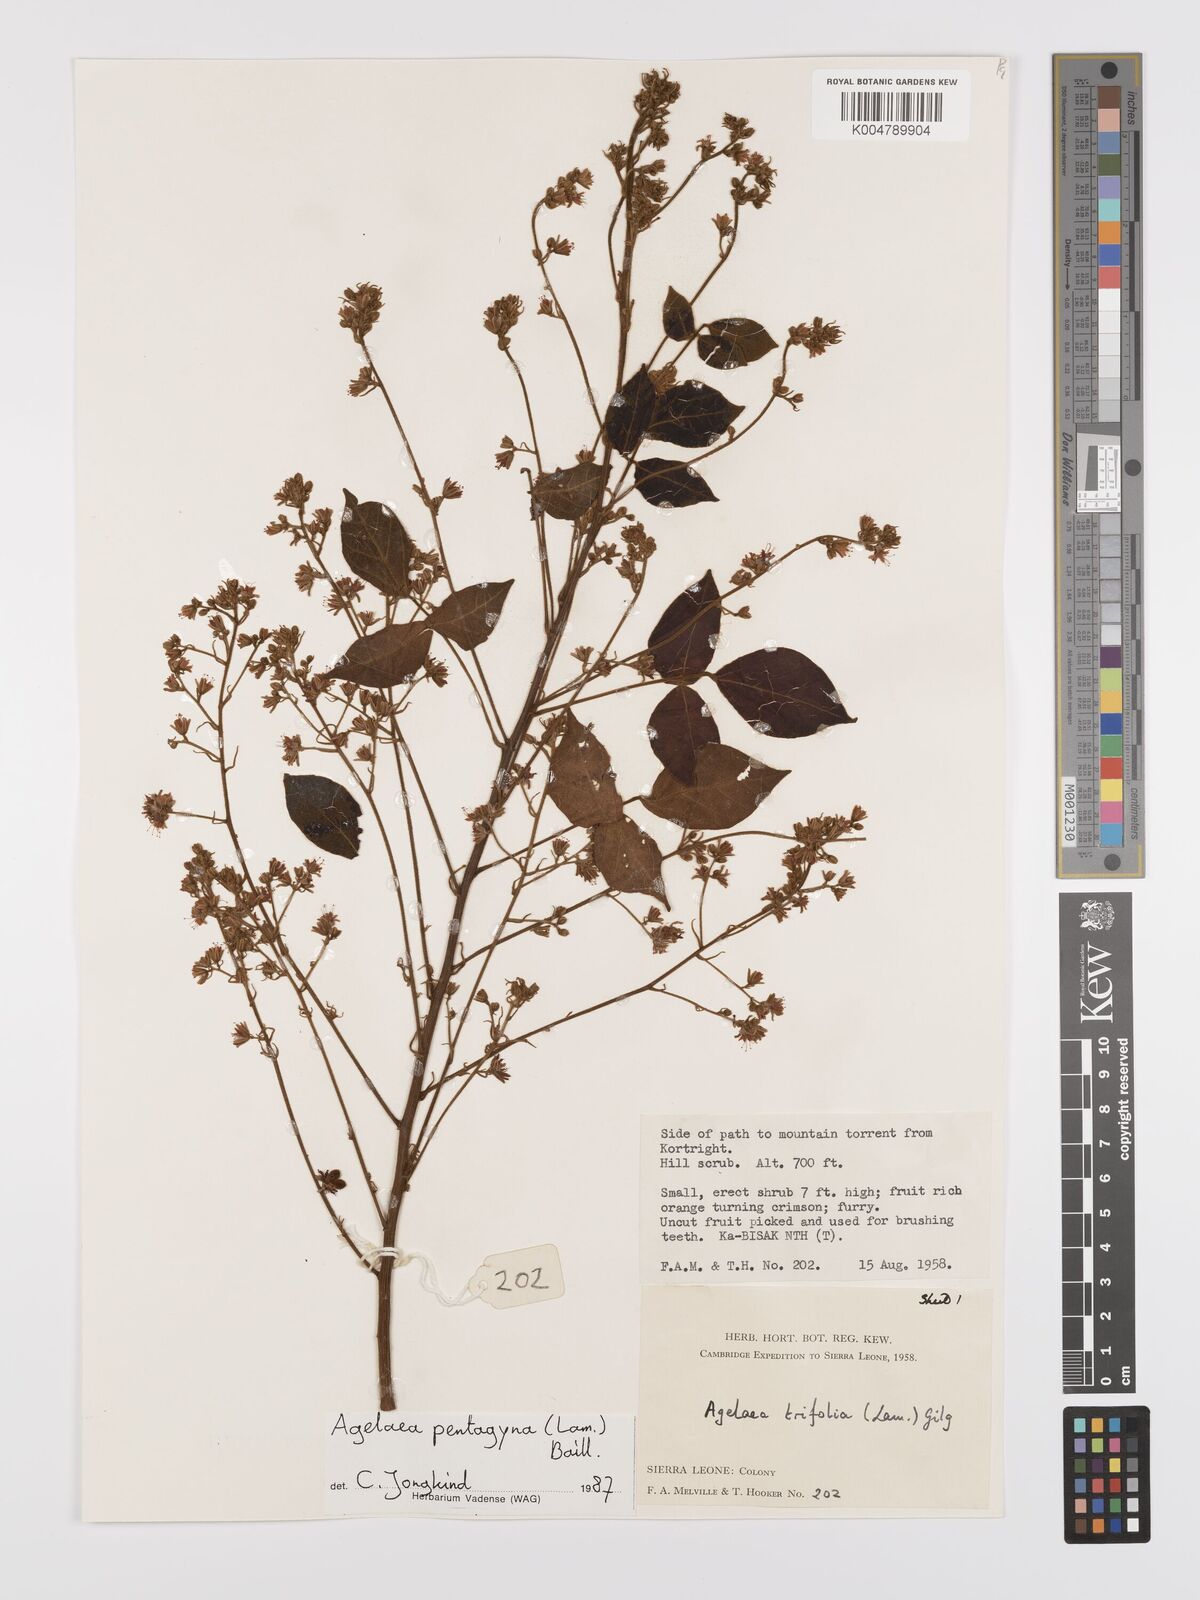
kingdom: Plantae
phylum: Tracheophyta
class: Magnoliopsida
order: Oxalidales
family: Connaraceae
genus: Agelaea
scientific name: Agelaea pentagyna
